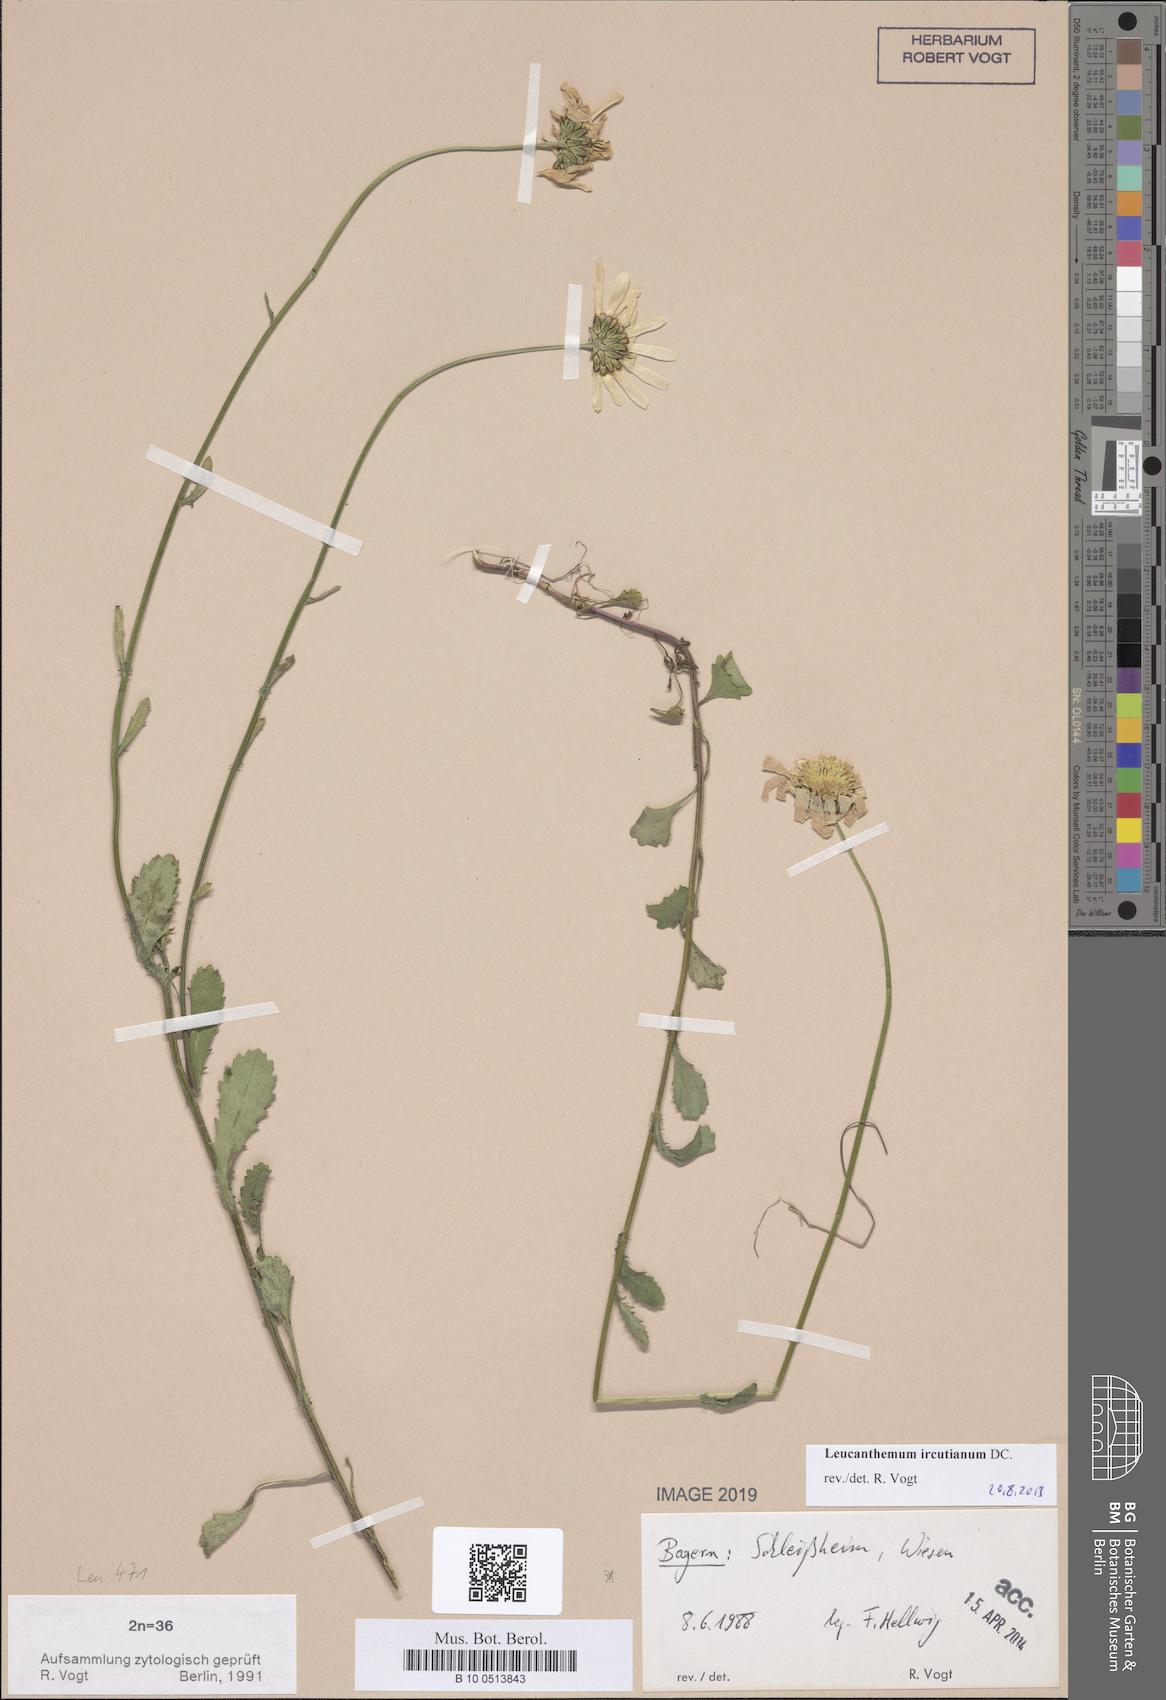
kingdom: Plantae
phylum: Tracheophyta
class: Magnoliopsida
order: Asterales
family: Asteraceae
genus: Leucanthemum
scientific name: Leucanthemum ircutianum
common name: Daisy
